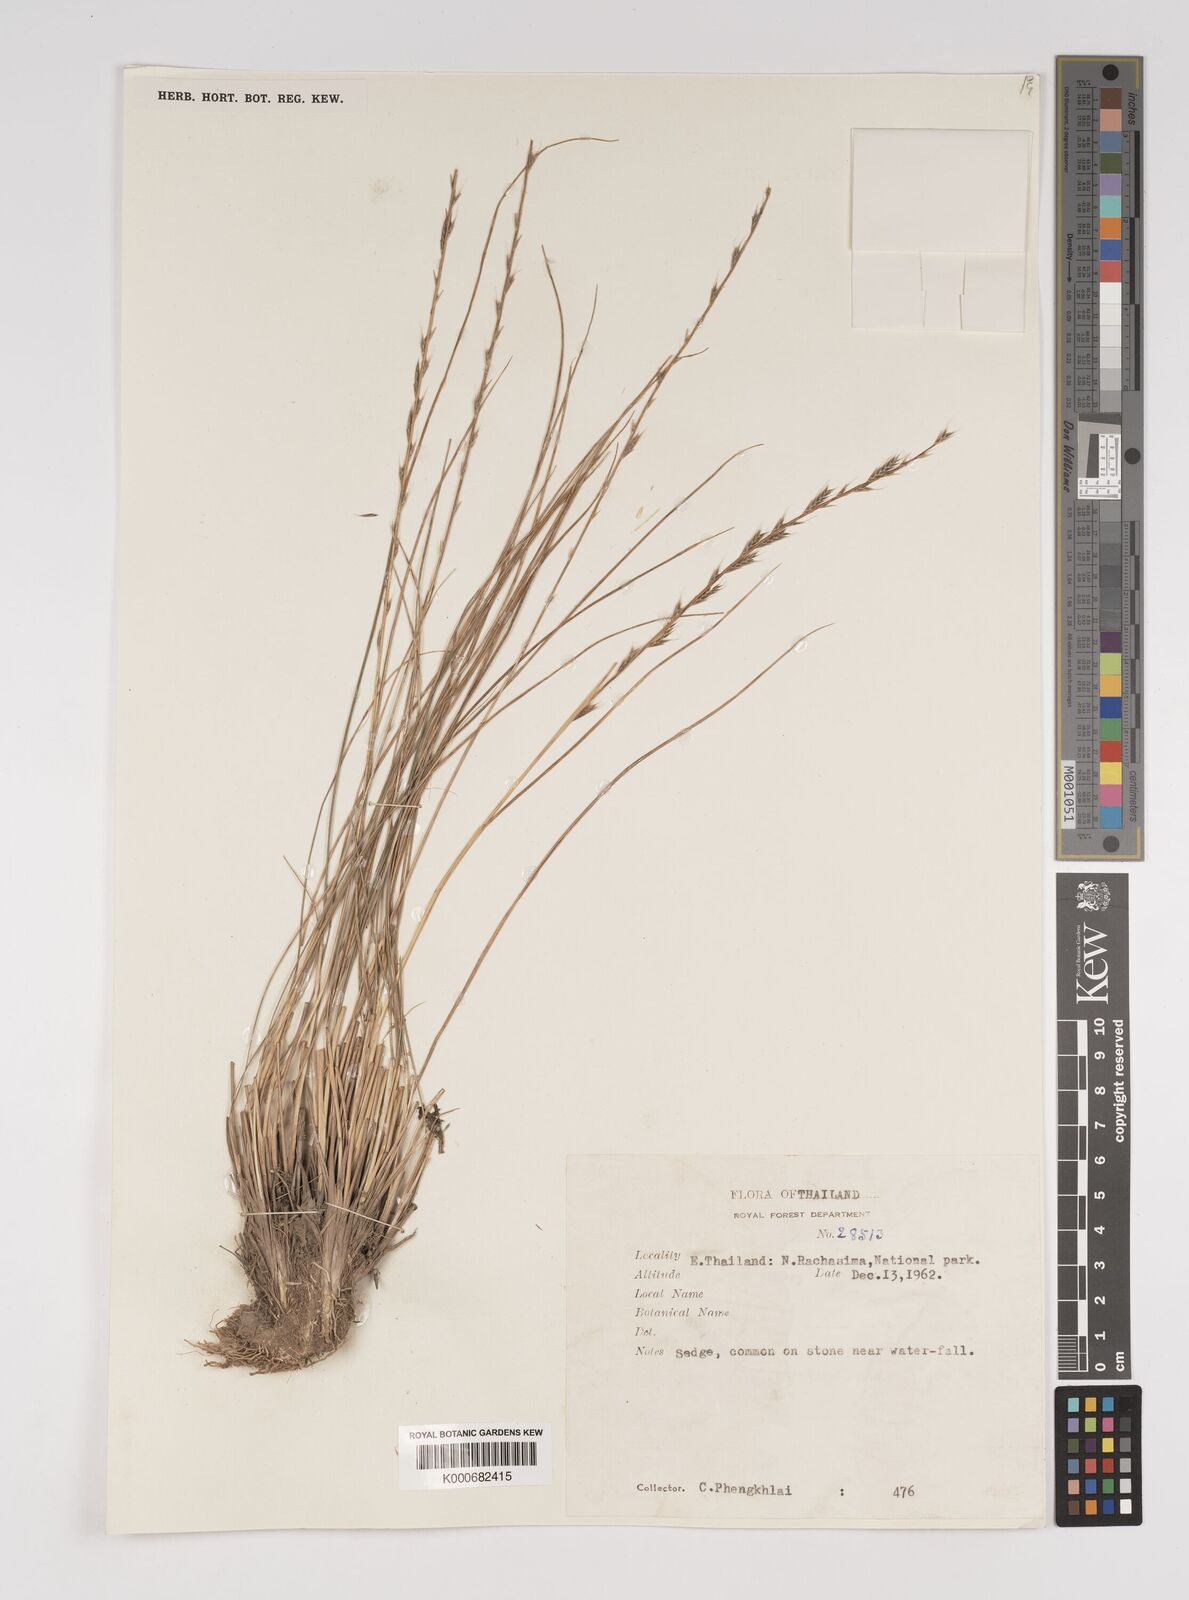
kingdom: Plantae
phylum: Tracheophyta
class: Liliopsida
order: Poales
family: Poaceae
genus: Tripogon
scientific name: Tripogon trifidus
